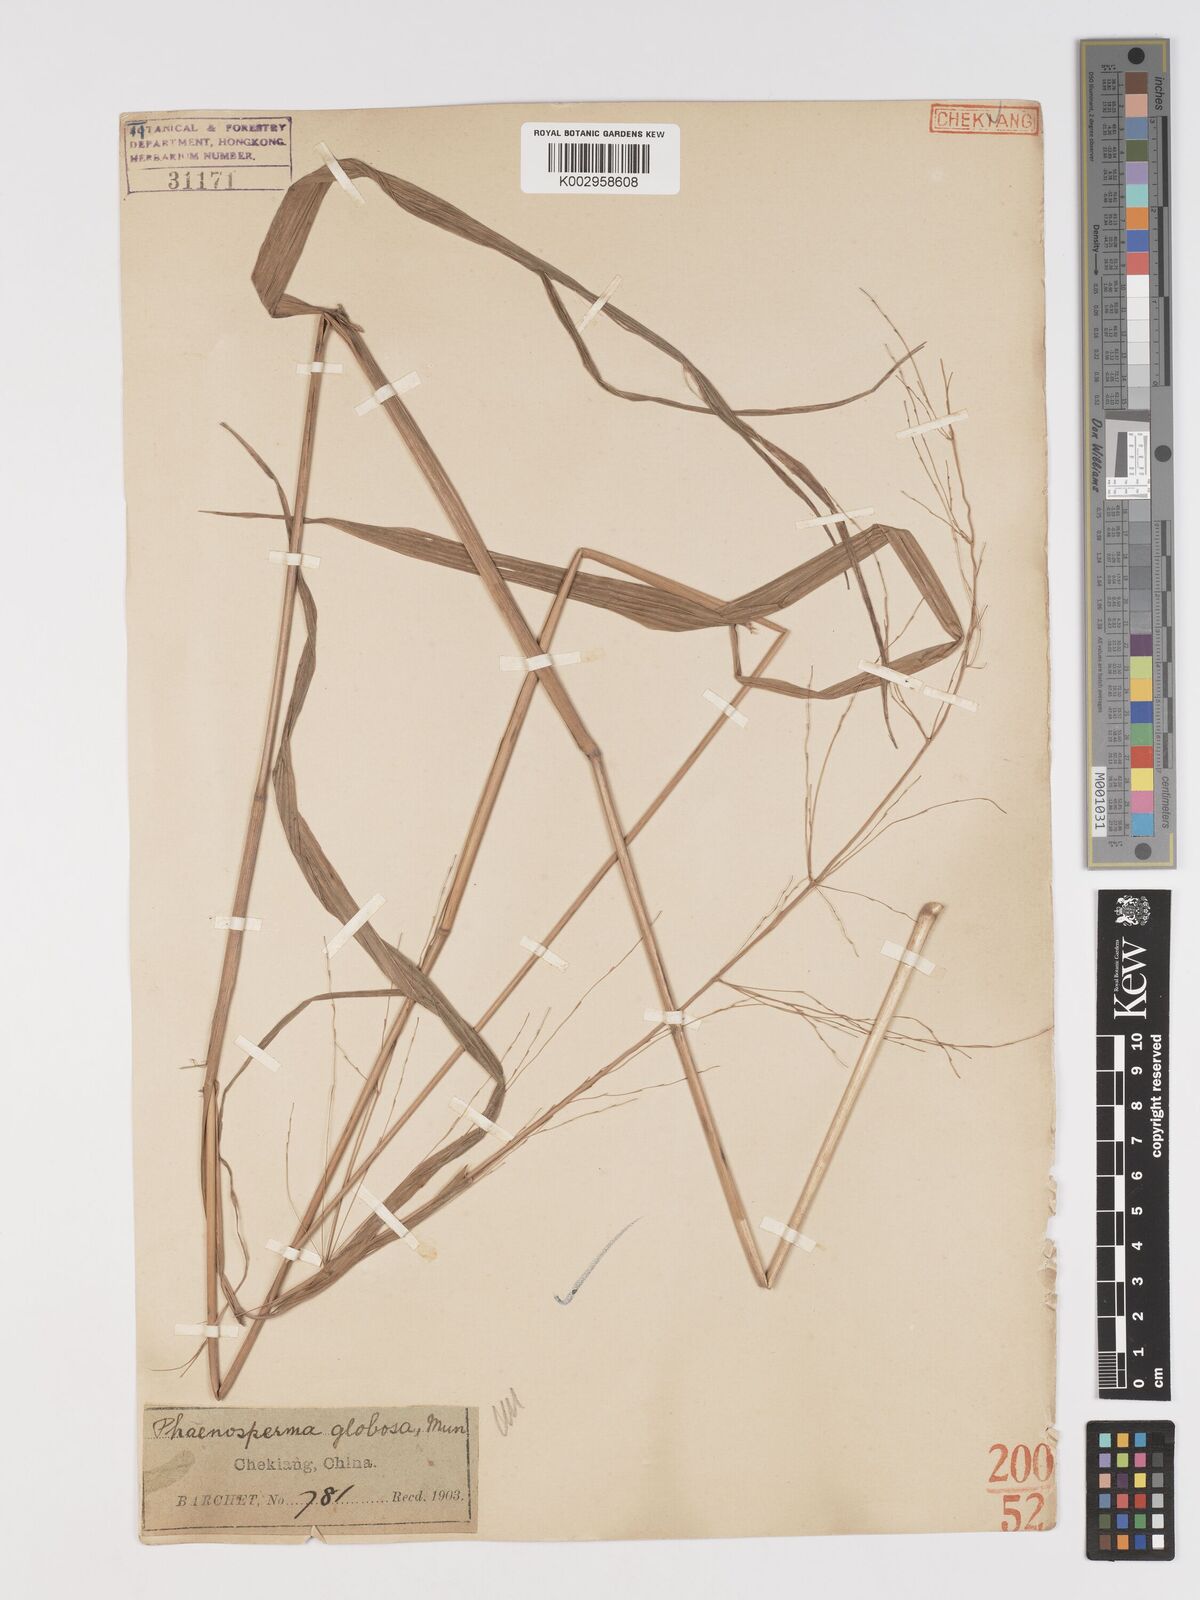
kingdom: Plantae
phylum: Tracheophyta
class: Liliopsida
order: Poales
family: Poaceae
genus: Phaenosperma
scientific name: Phaenosperma globosum
